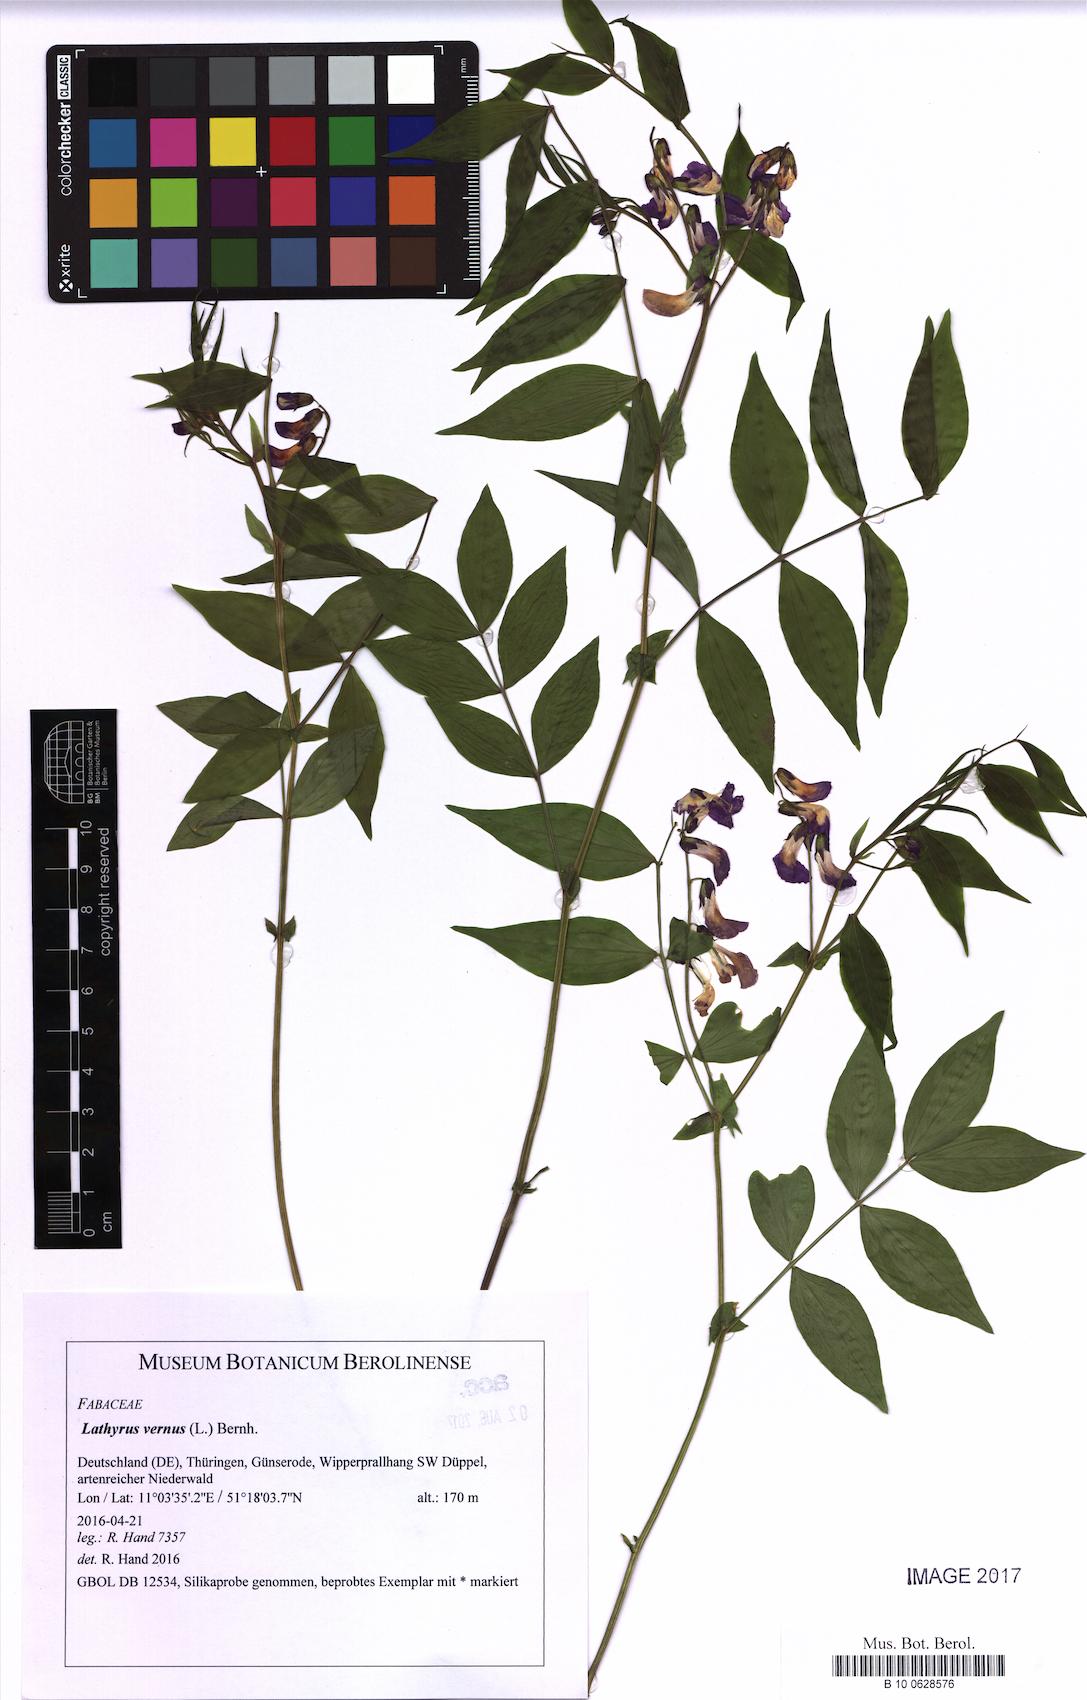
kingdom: Plantae
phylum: Tracheophyta
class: Magnoliopsida
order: Fabales
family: Fabaceae
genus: Lathyrus
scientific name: Lathyrus vernus
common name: Spring pea
